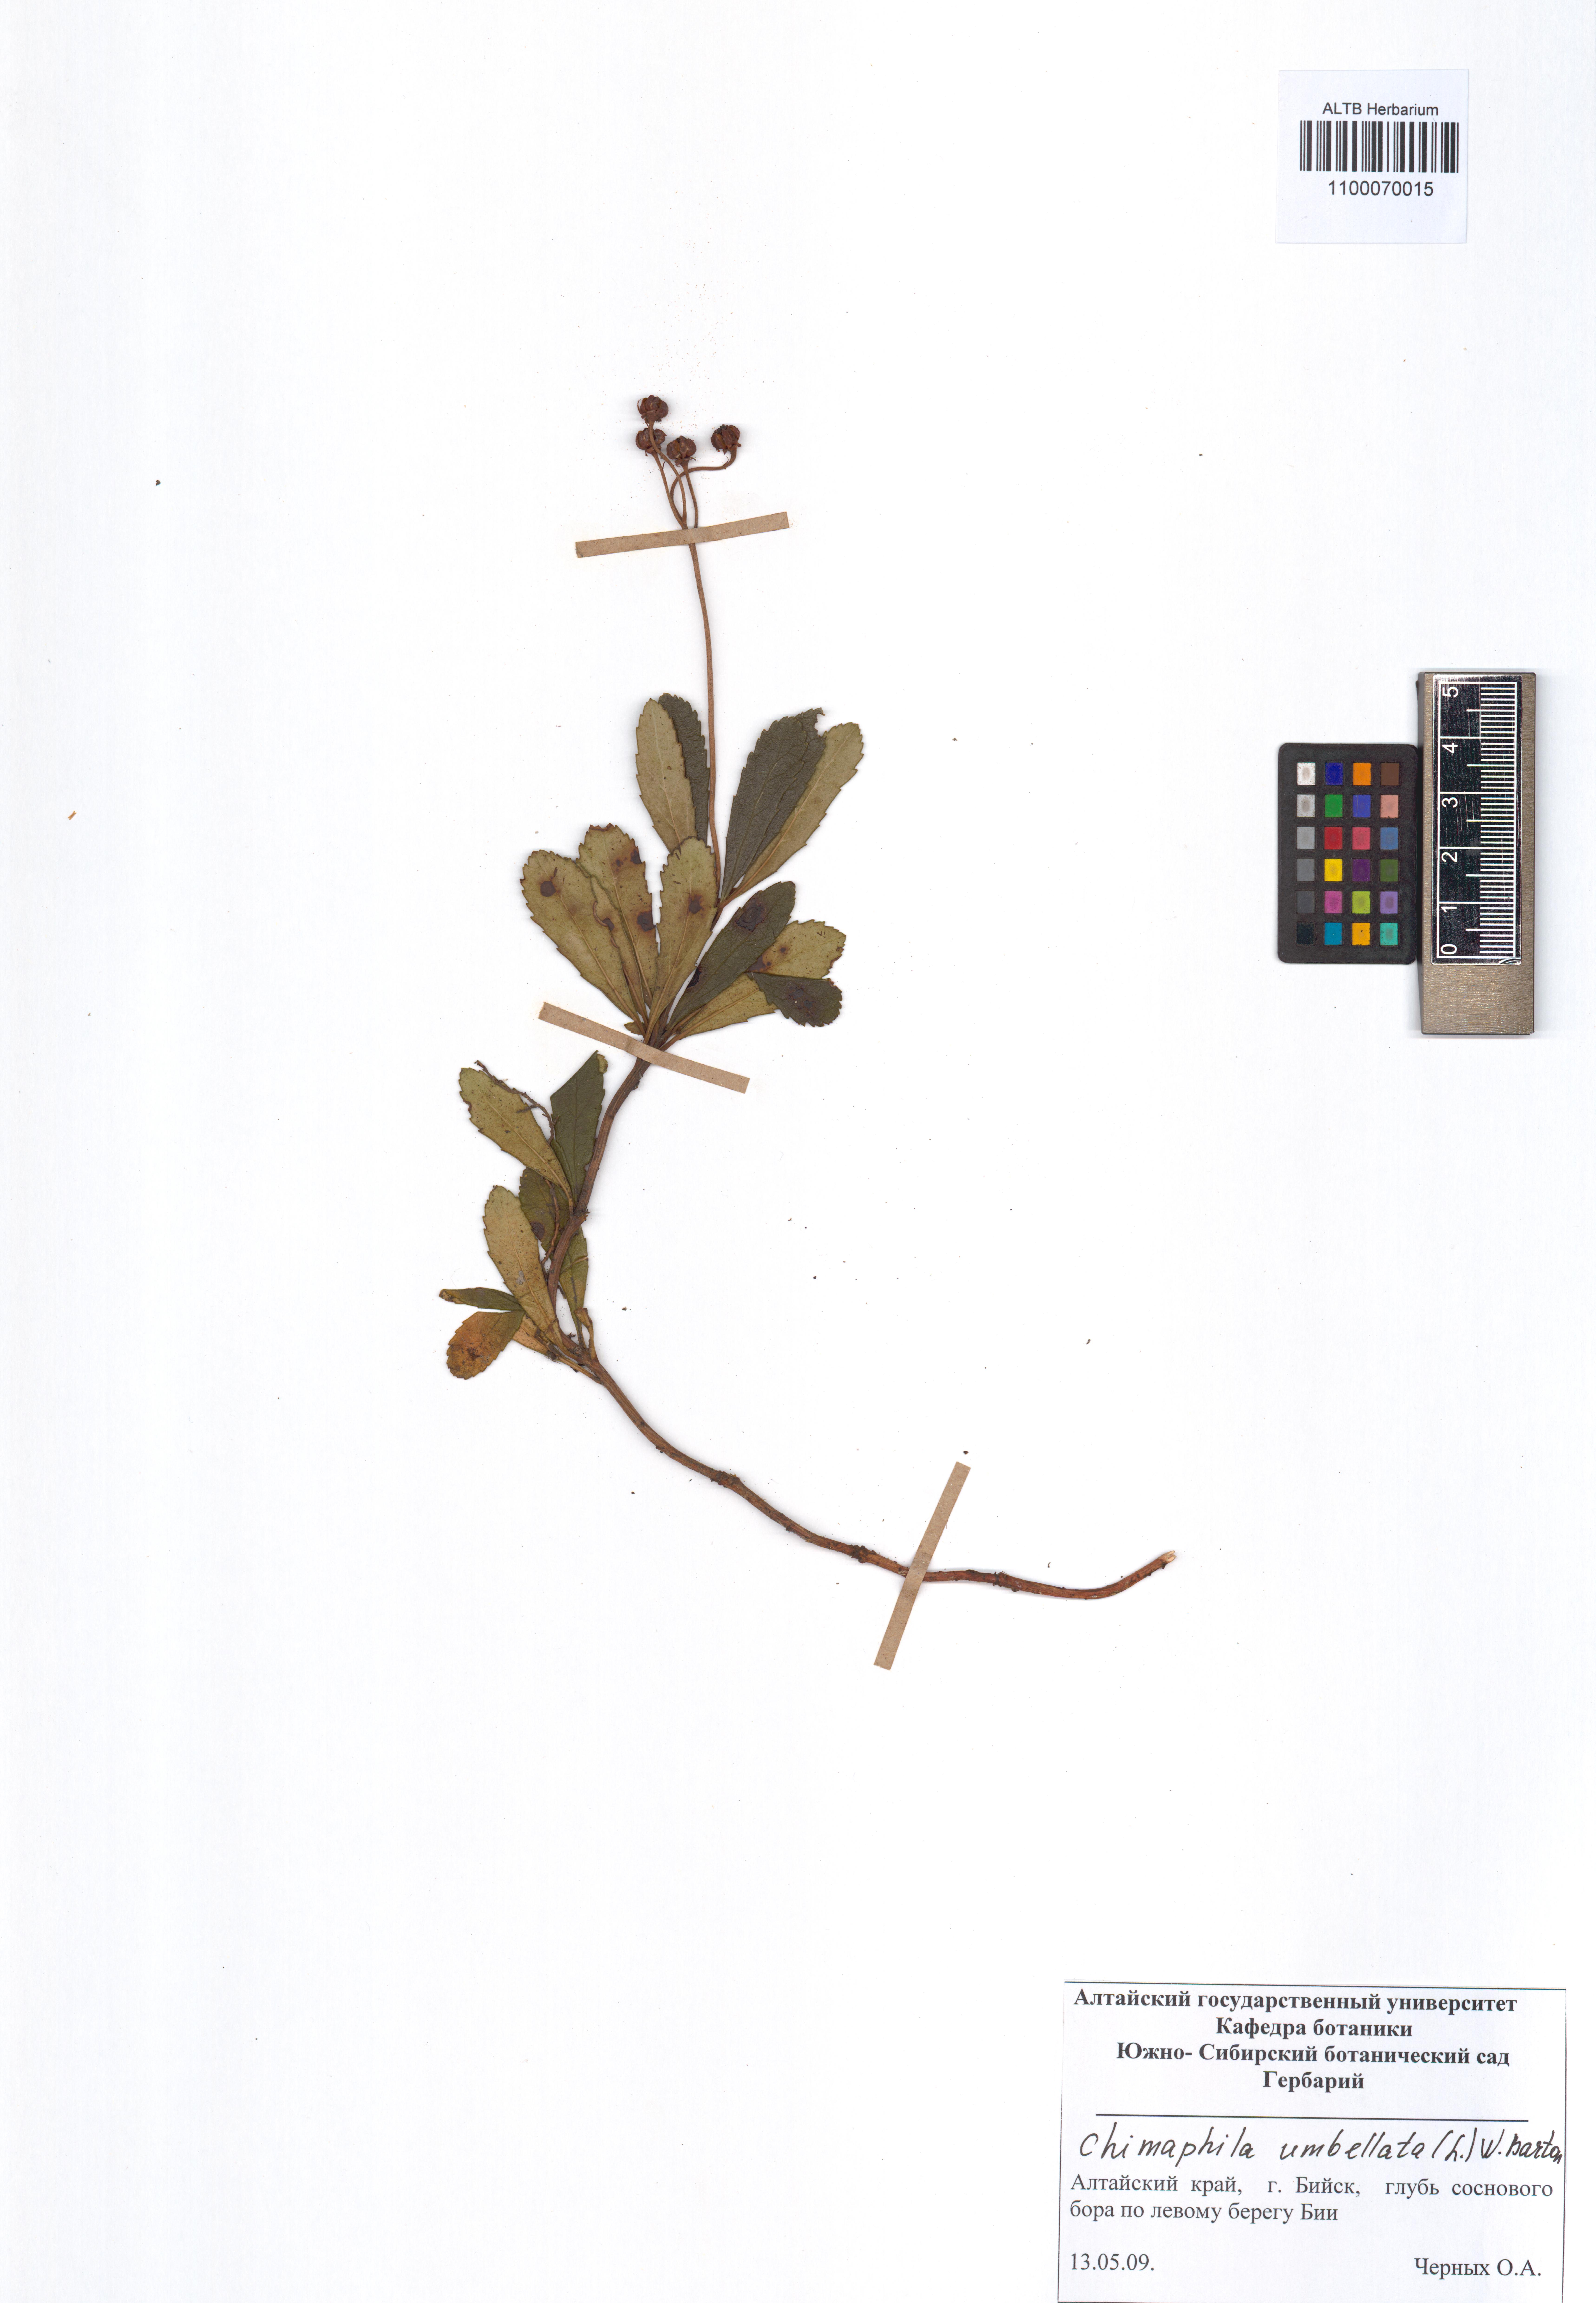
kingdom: Plantae
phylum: Tracheophyta
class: Magnoliopsida
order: Ericales
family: Ericaceae
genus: Chimaphila
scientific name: Chimaphila umbellata
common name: Pipsissewa
